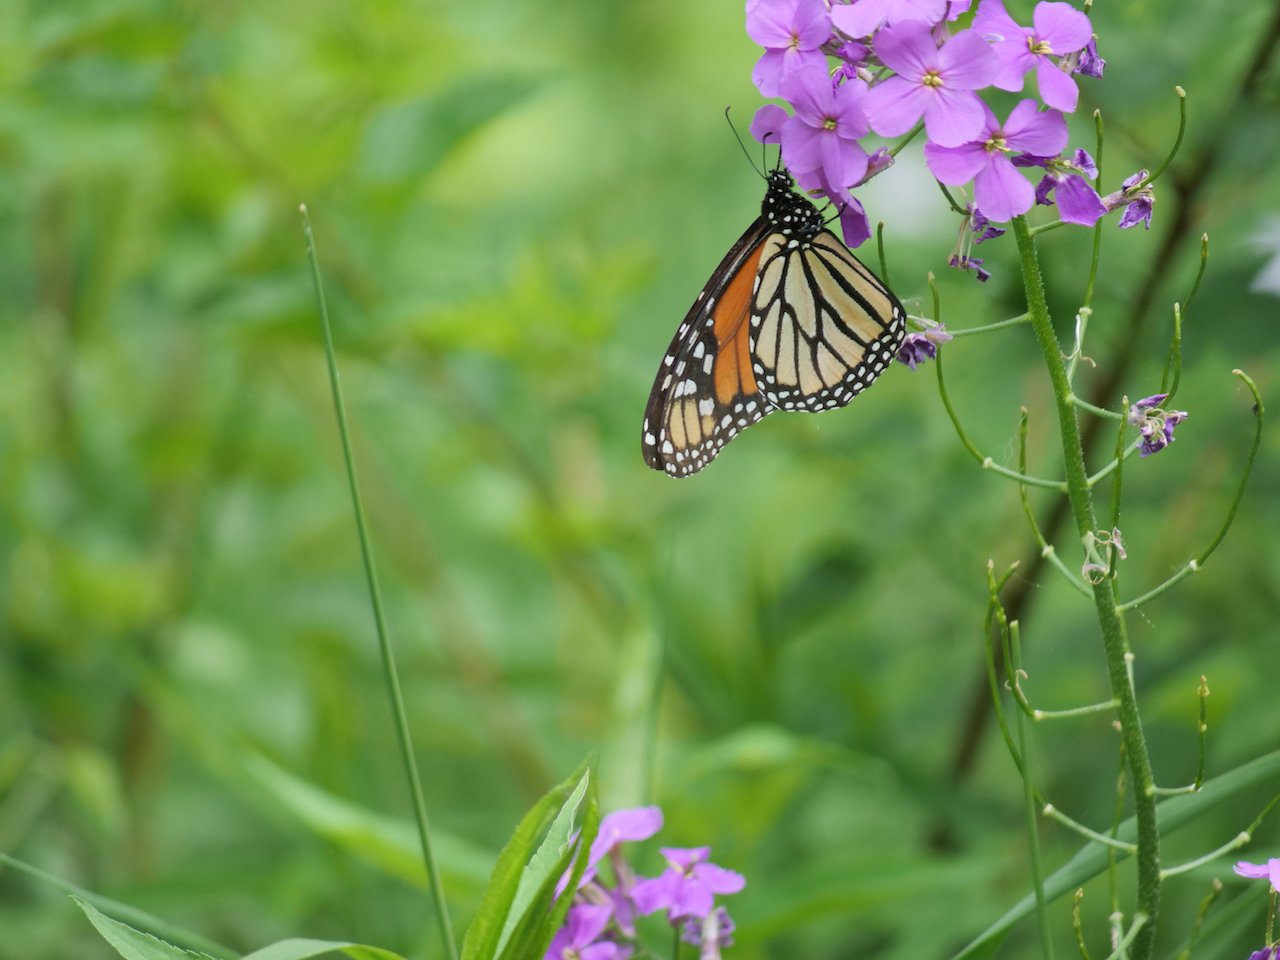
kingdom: Animalia
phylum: Arthropoda
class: Insecta
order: Lepidoptera
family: Nymphalidae
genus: Danaus
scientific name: Danaus plexippus
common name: Monarch
